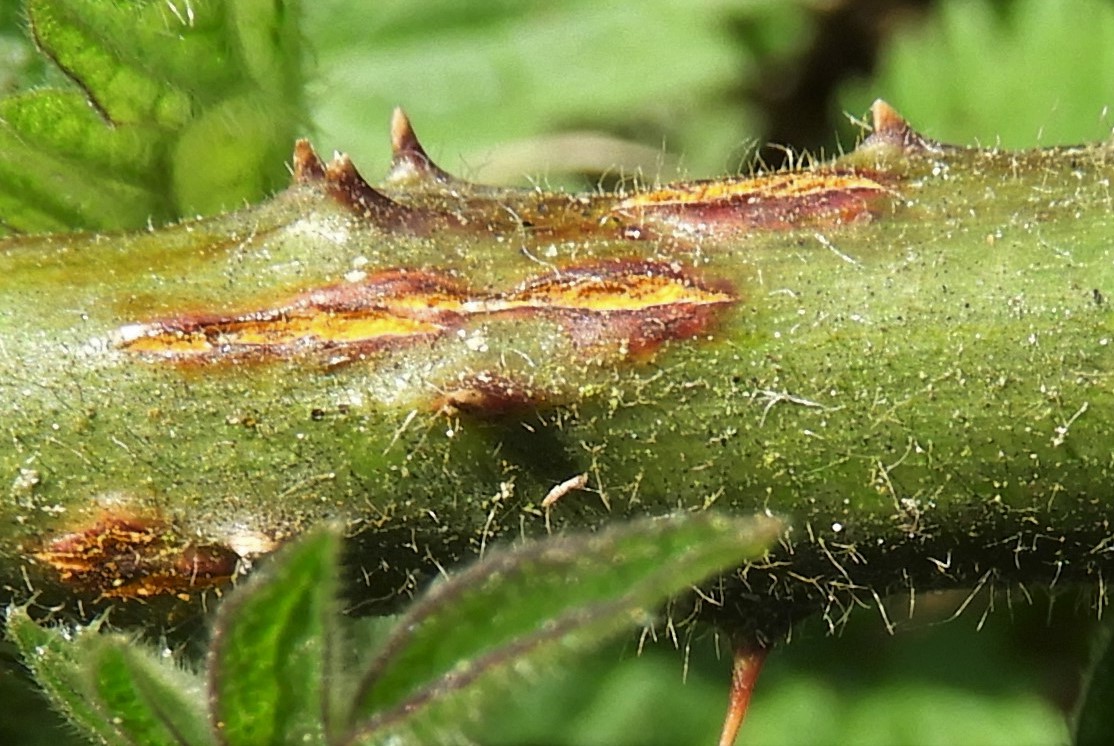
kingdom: Fungi
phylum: Basidiomycota
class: Pucciniomycetes
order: Pucciniales
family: Phragmidiaceae
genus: Kuehneola
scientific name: Kuehneola uredinis
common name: klynger-kædecellerust
